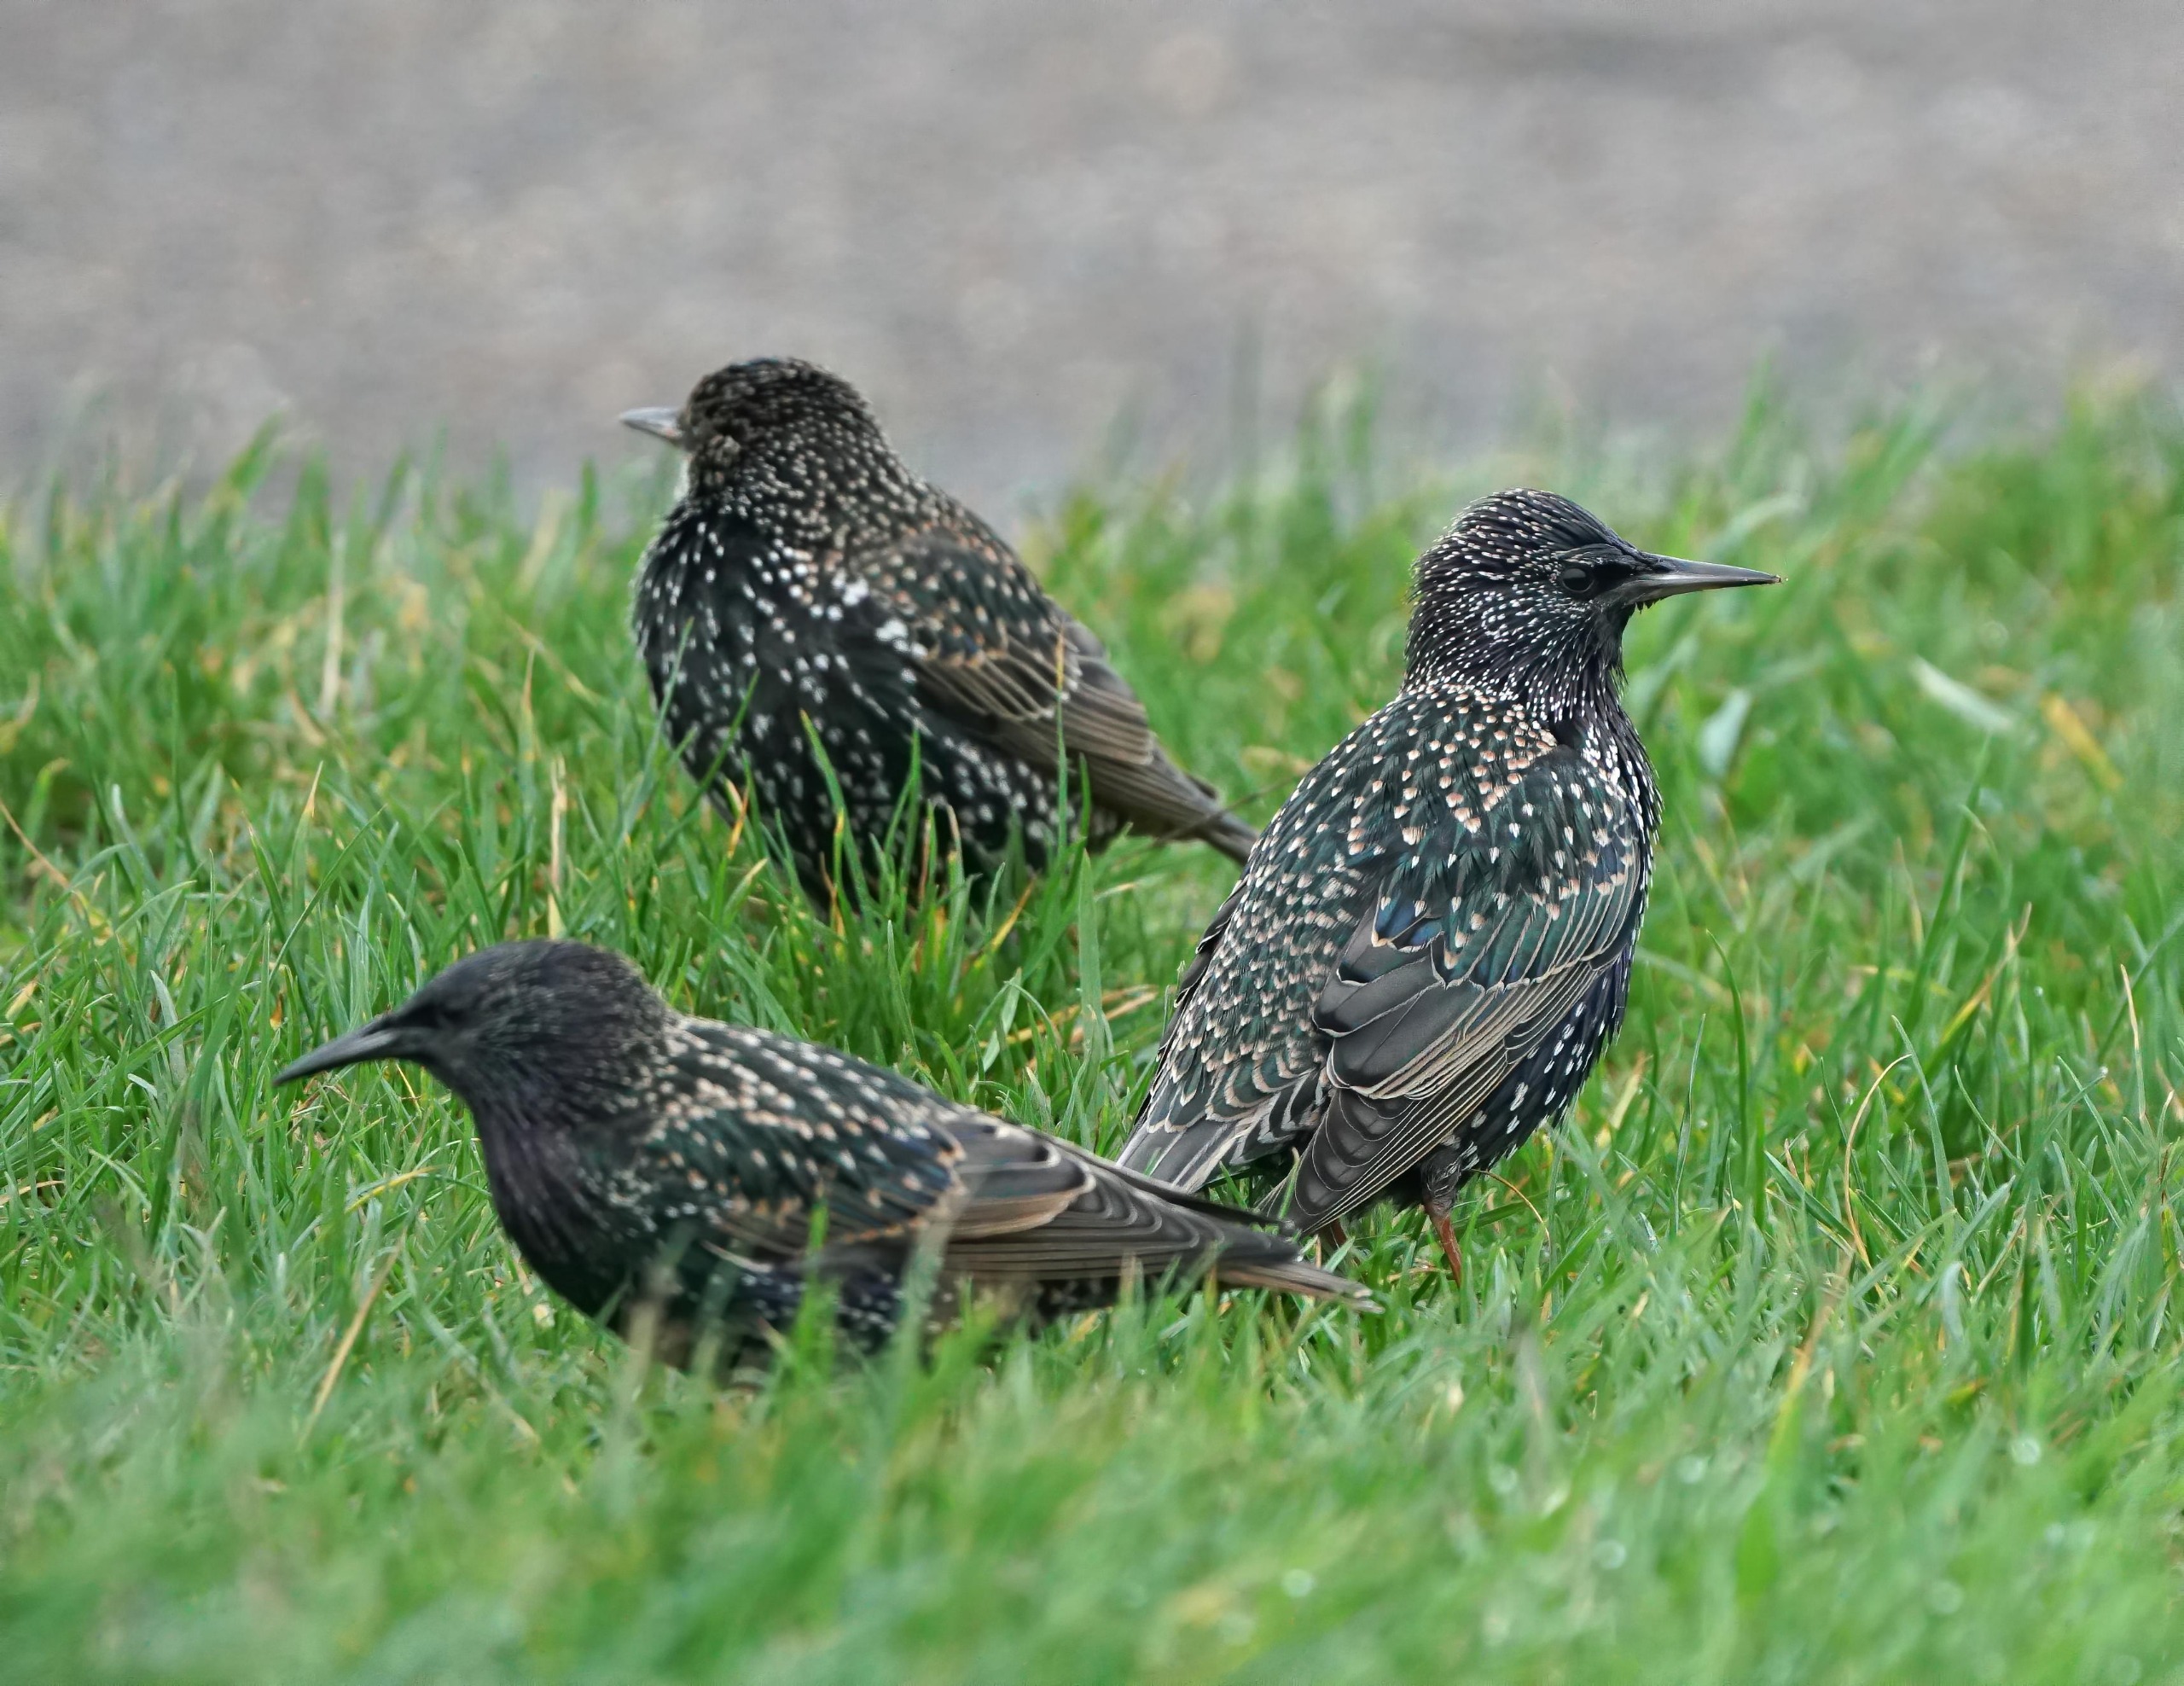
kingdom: Animalia
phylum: Chordata
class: Aves
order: Passeriformes
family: Sturnidae
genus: Sturnus
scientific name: Sturnus vulgaris
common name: Stær
